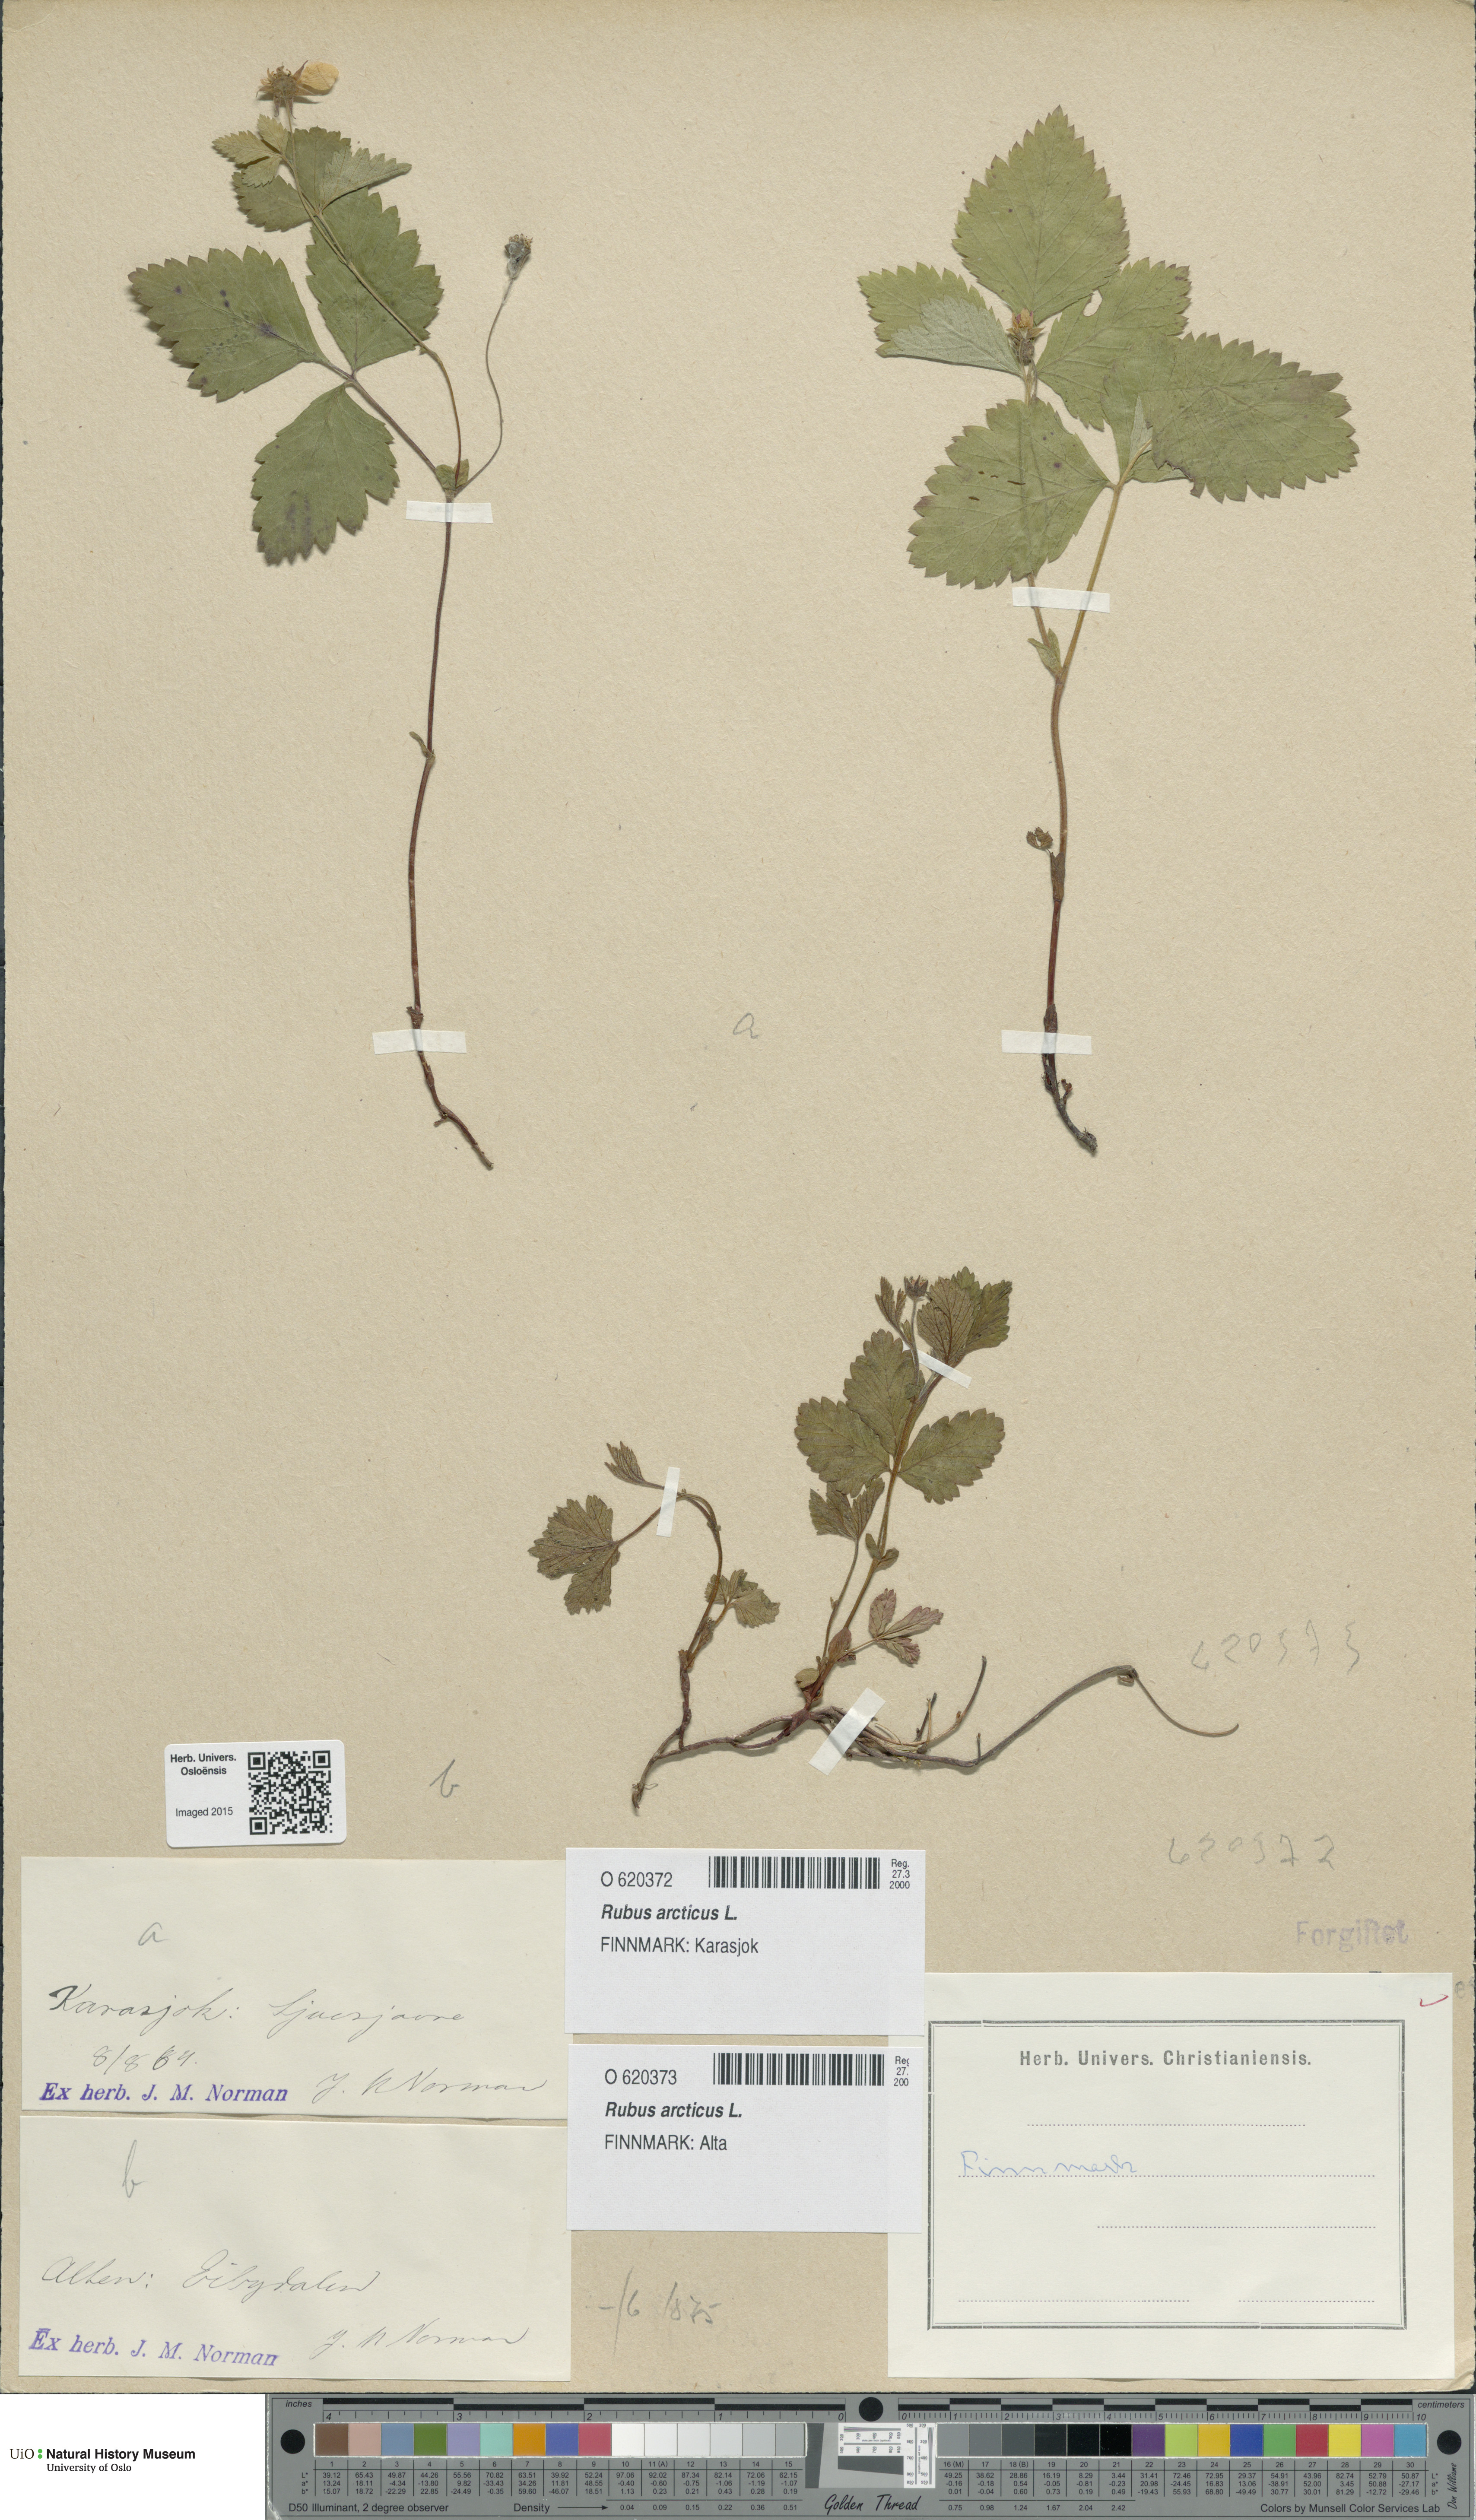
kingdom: Plantae
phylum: Tracheophyta
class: Magnoliopsida
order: Rosales
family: Rosaceae
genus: Rubus
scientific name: Rubus arcticus
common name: Arctic bramble
